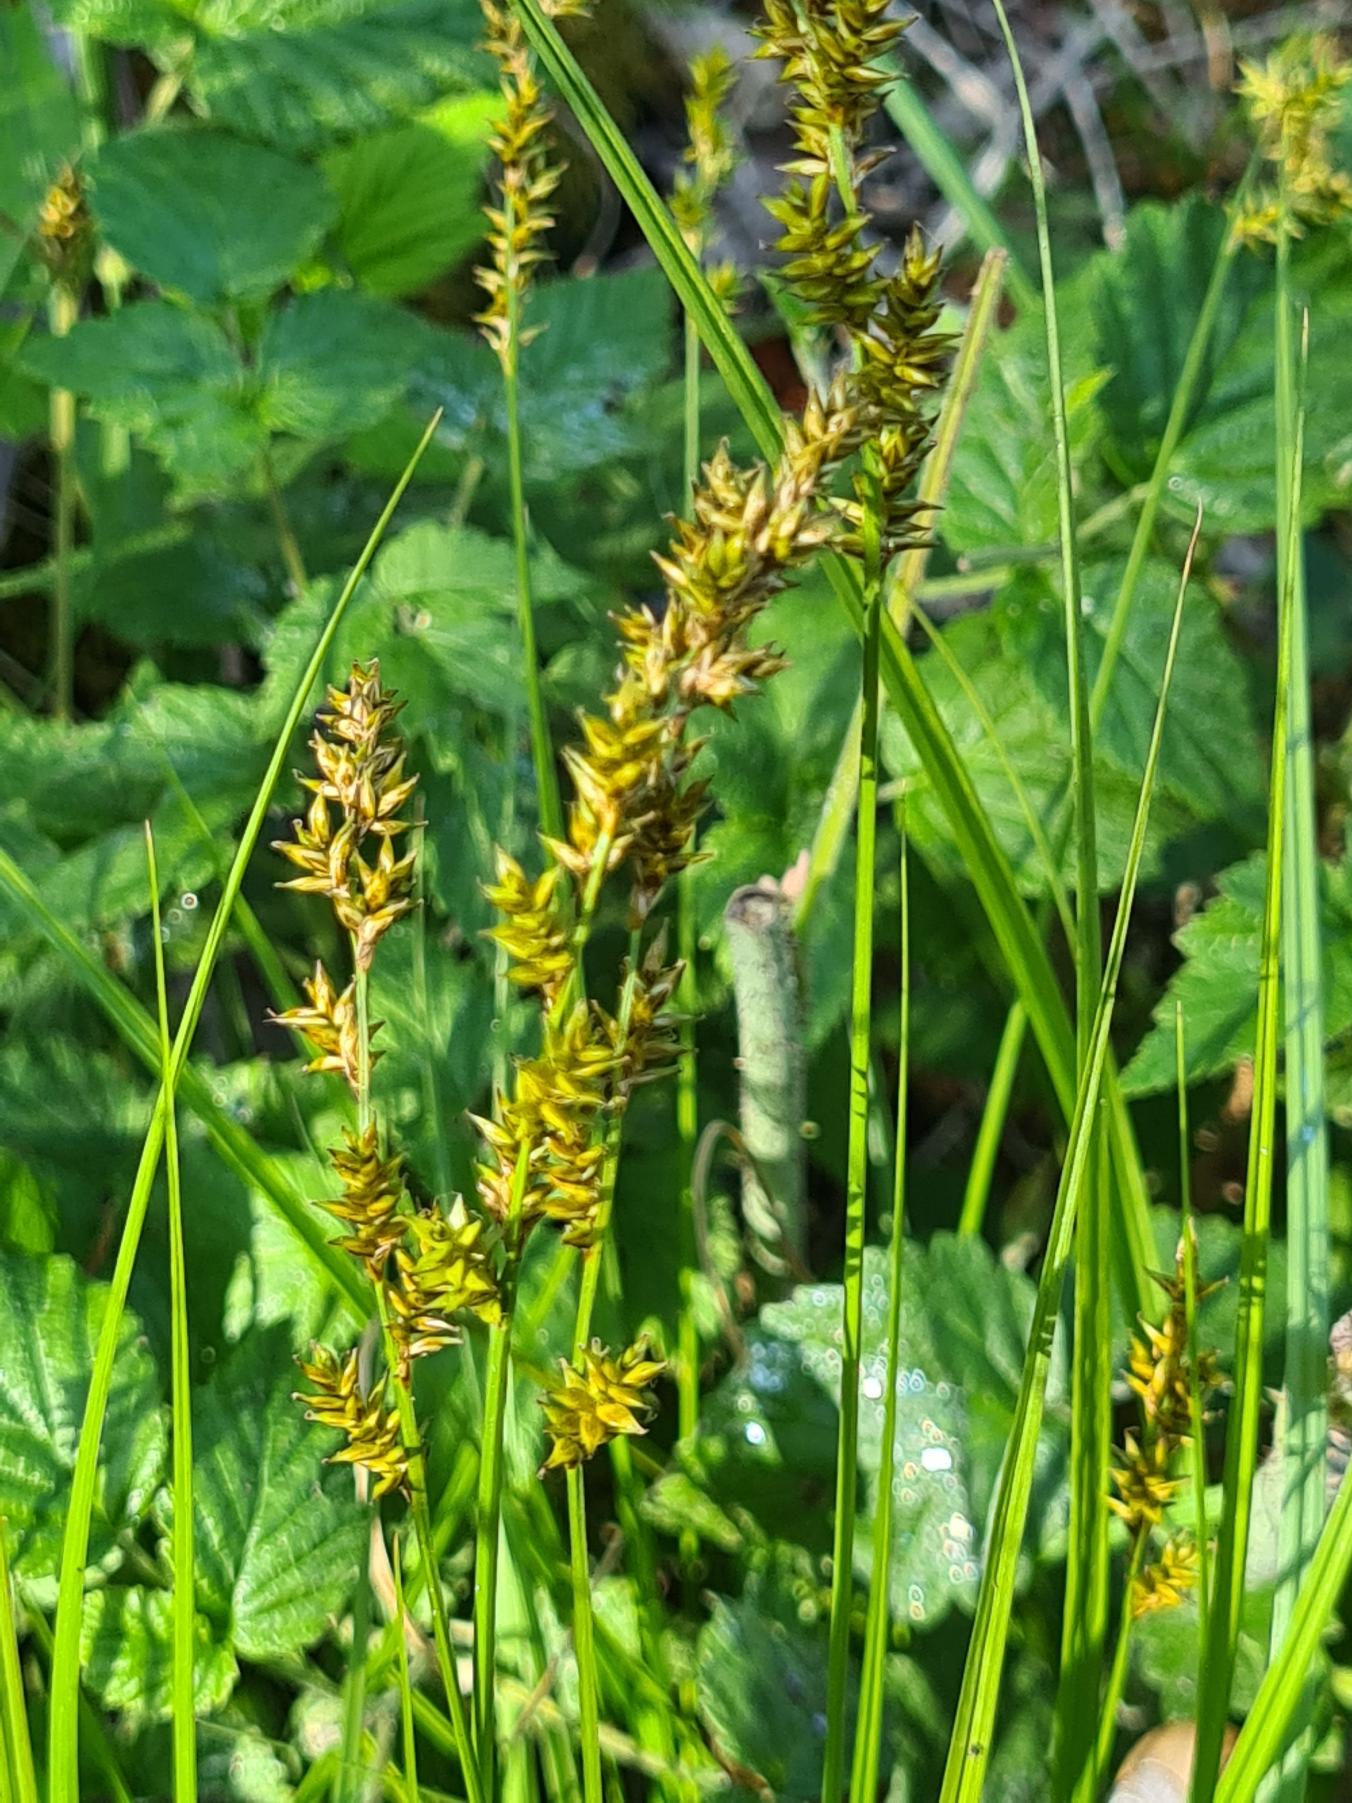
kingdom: Plantae
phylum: Tracheophyta
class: Liliopsida
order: Poales
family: Cyperaceae
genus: Carex
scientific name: Carex elongata
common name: Forlænget star
